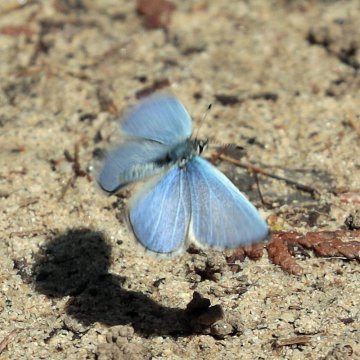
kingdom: Animalia
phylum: Arthropoda
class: Insecta
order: Lepidoptera
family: Lycaenidae
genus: Celastrina
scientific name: Celastrina lucia
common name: Northern Spring Azure
